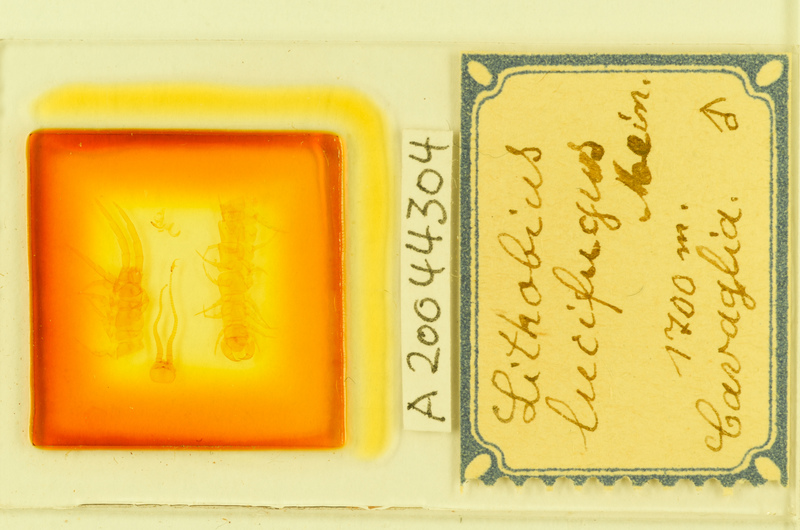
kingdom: Animalia
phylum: Arthropoda
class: Chilopoda
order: Lithobiomorpha
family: Lithobiidae
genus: Lithobius
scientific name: Lithobius lucifugus
